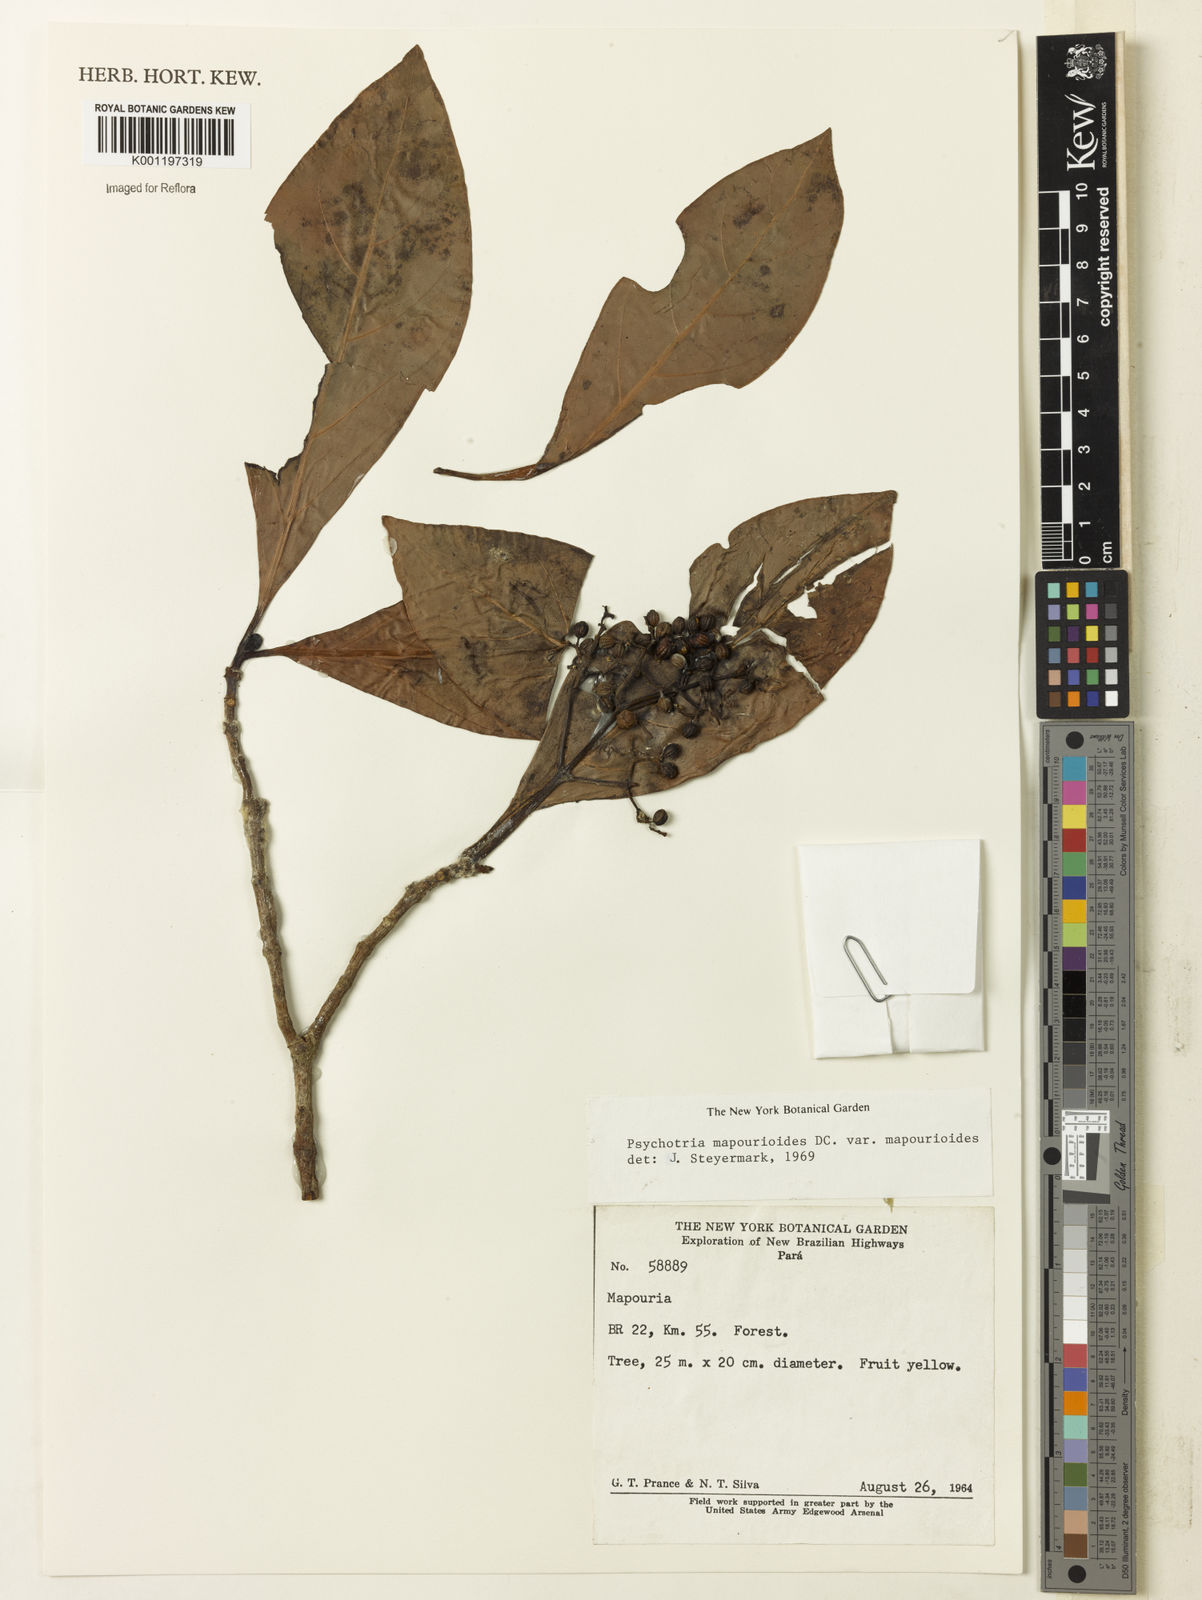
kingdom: Plantae
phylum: Tracheophyta
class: Magnoliopsida
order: Gentianales
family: Rubiaceae
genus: Psychotria
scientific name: Psychotria pedunculosa
